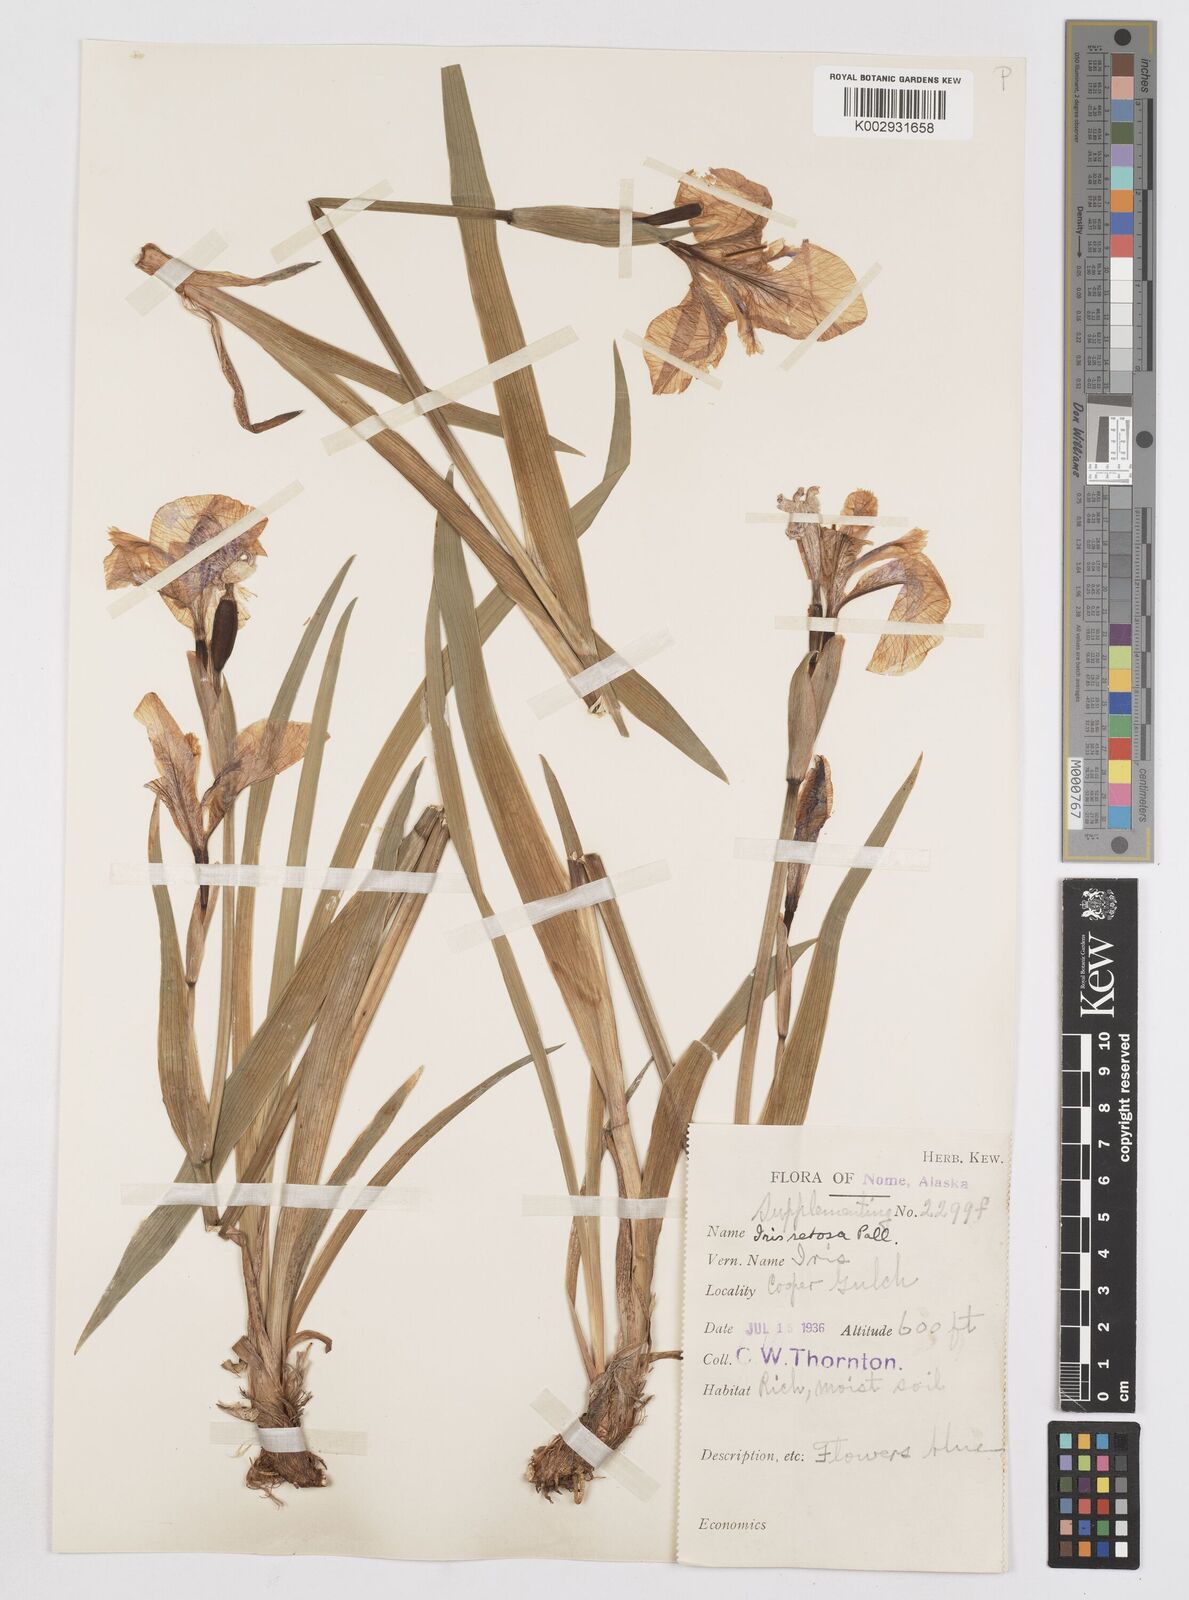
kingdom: Plantae
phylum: Tracheophyta
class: Liliopsida
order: Asparagales
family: Iridaceae
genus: Iris
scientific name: Iris setosa
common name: Arctic blue flag
